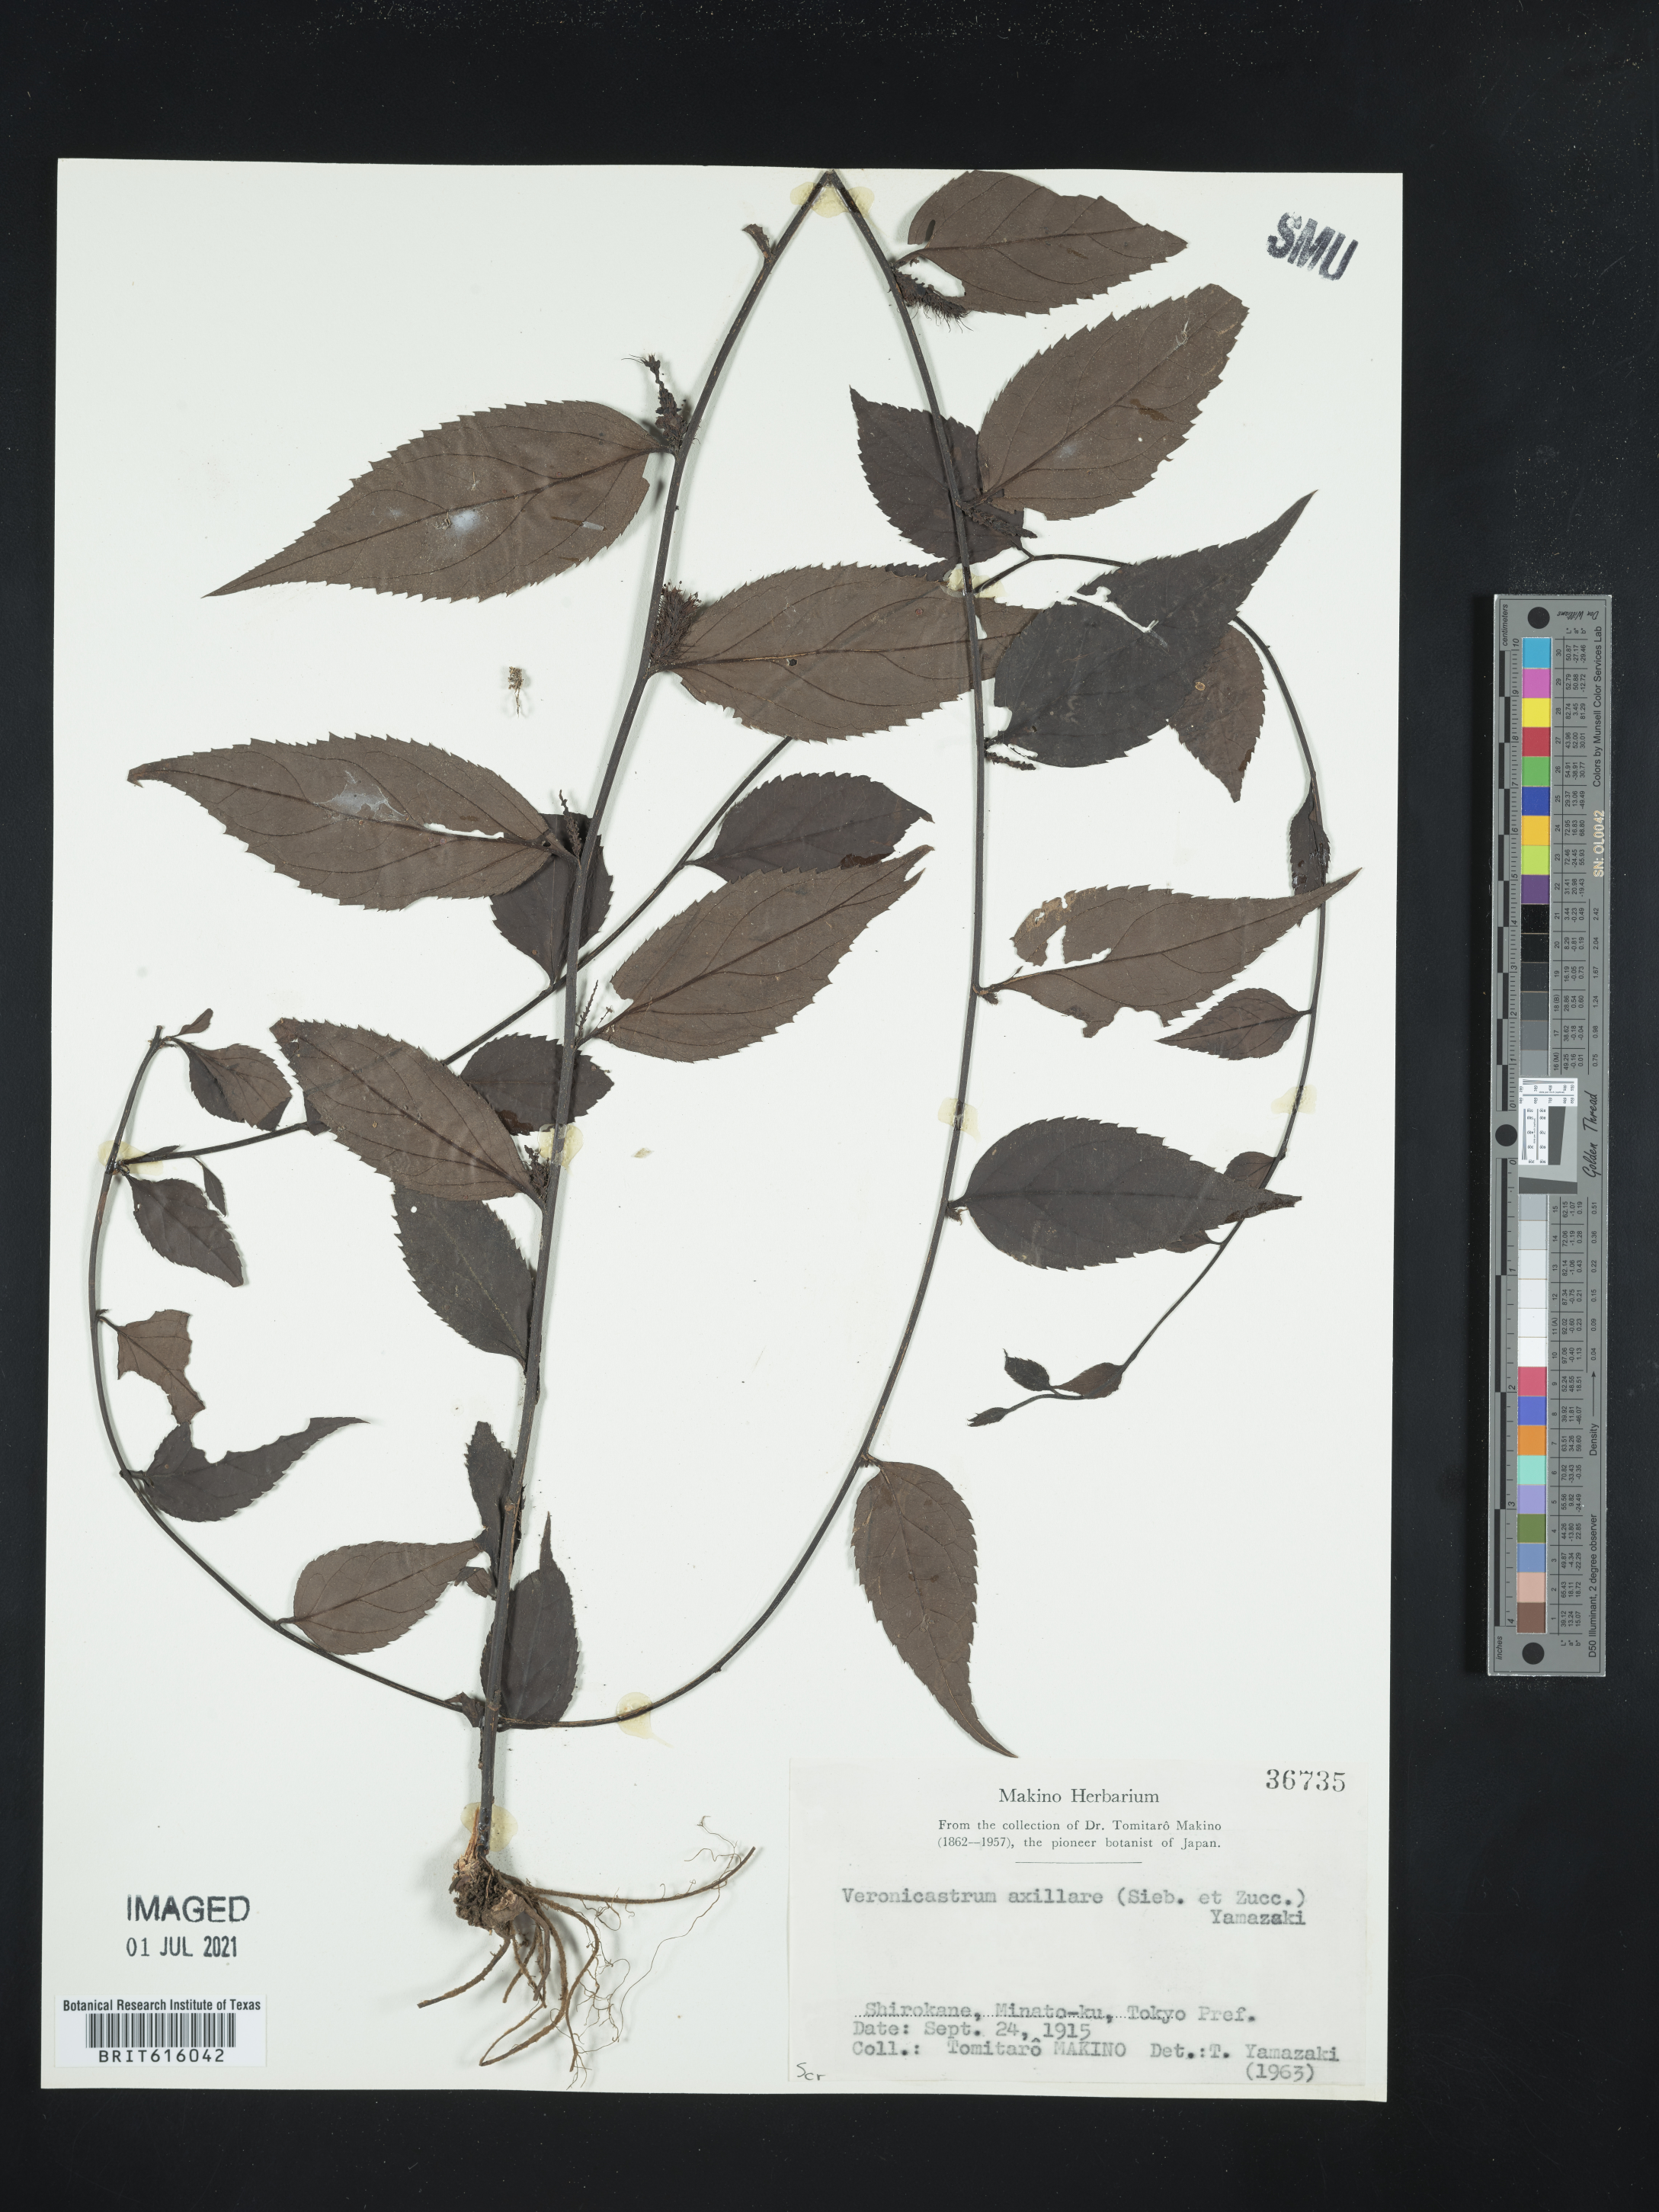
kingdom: Plantae
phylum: Tracheophyta
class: Magnoliopsida
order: Lamiales
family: Plantaginaceae
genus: Veronicastrum
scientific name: Veronicastrum axillare
